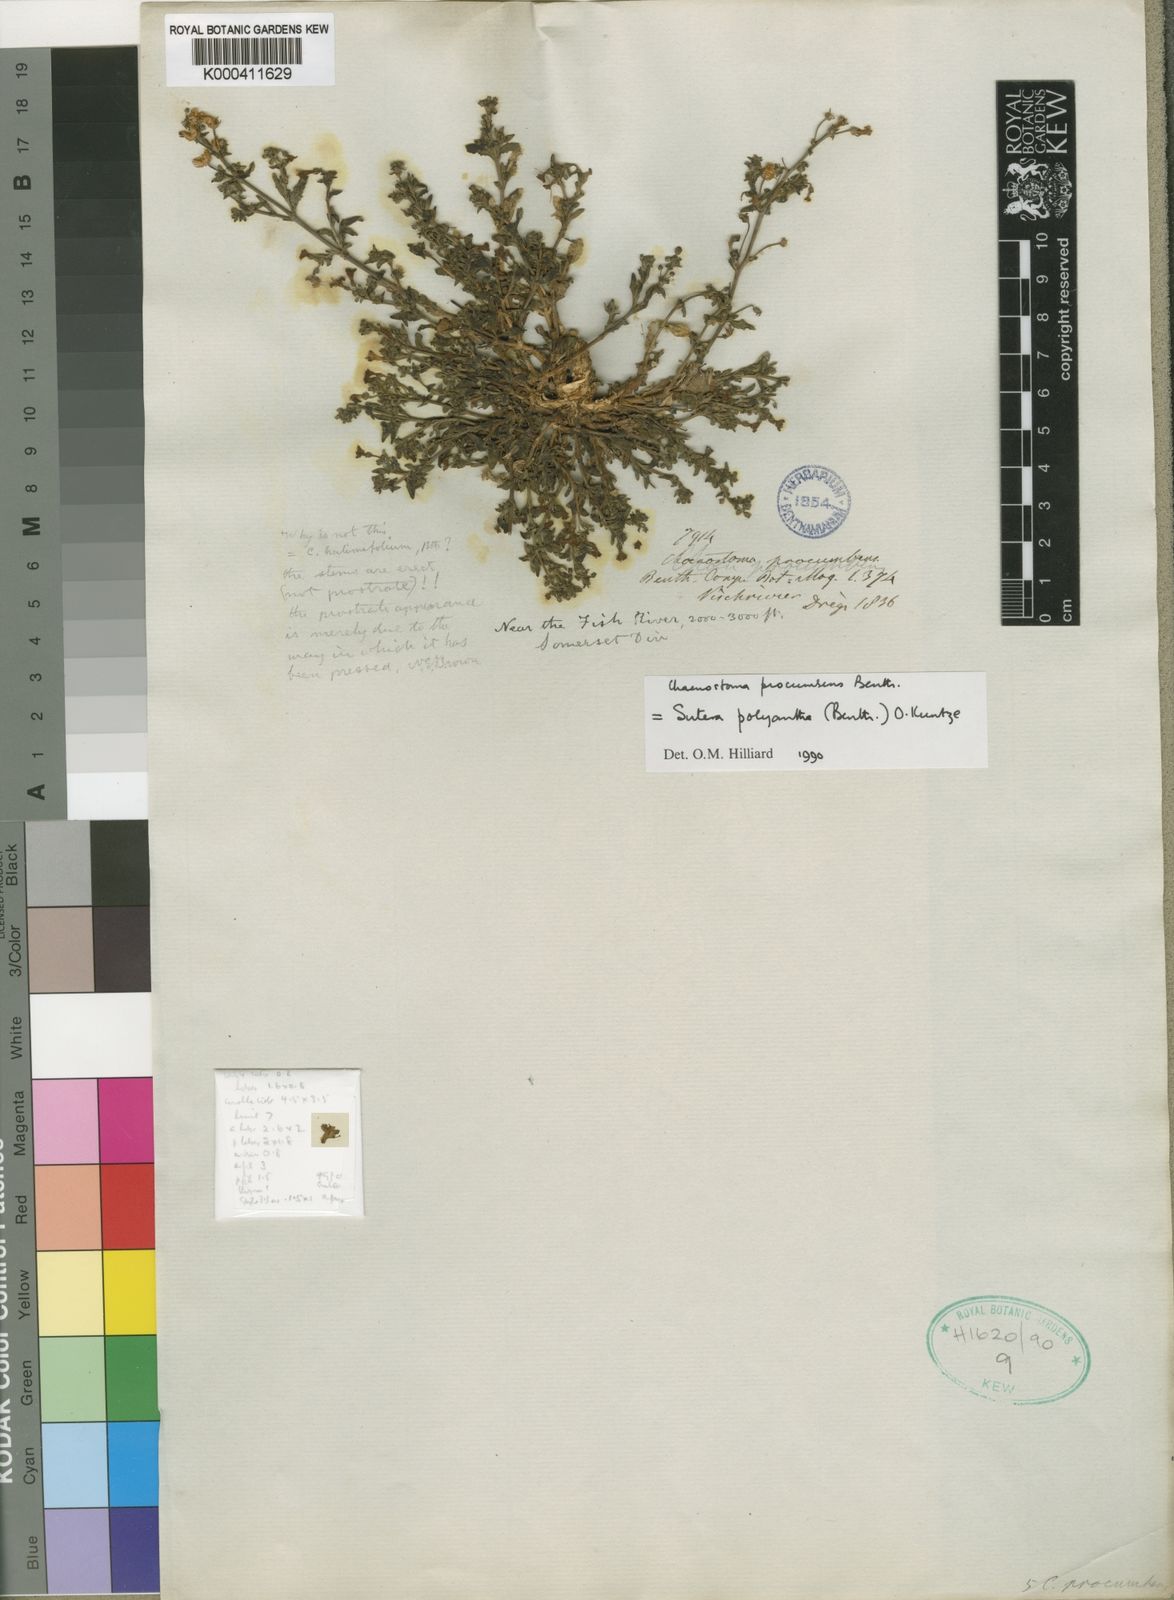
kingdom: Plantae
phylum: Tracheophyta
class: Magnoliopsida
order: Lamiales
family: Scrophulariaceae
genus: Chaenostoma
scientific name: Chaenostoma polyanthum
